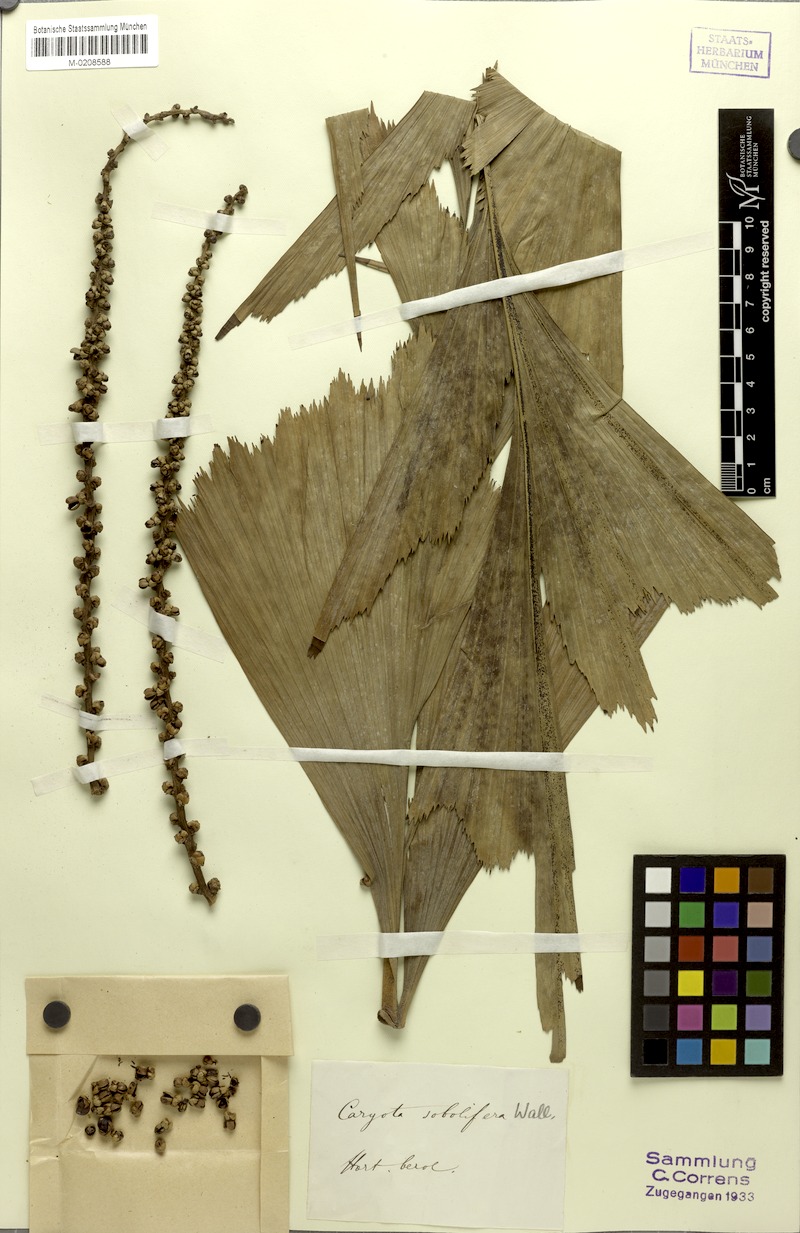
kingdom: Plantae
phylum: Tracheophyta
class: Liliopsida
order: Arecales
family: Arecaceae
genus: Caryota
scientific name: Caryota mitis
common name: Burmese fishtail palm
